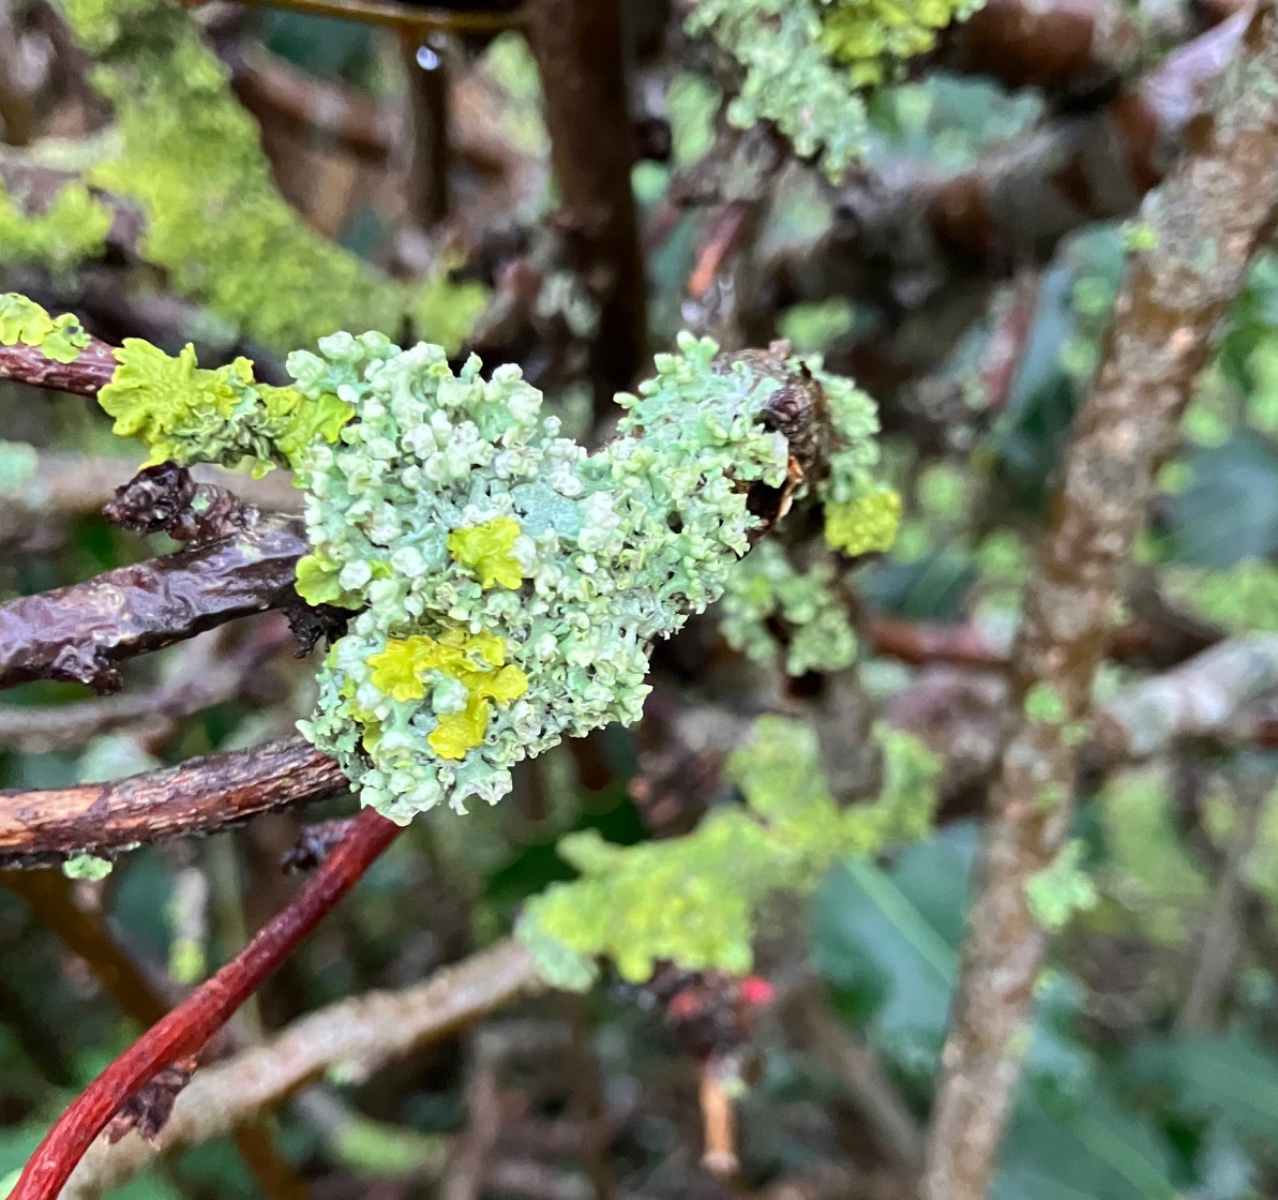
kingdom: Fungi
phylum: Ascomycota
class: Lecanoromycetes
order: Caliciales
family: Physciaceae
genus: Physcia
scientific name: Physcia adscendens
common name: hætte-rosetlav
